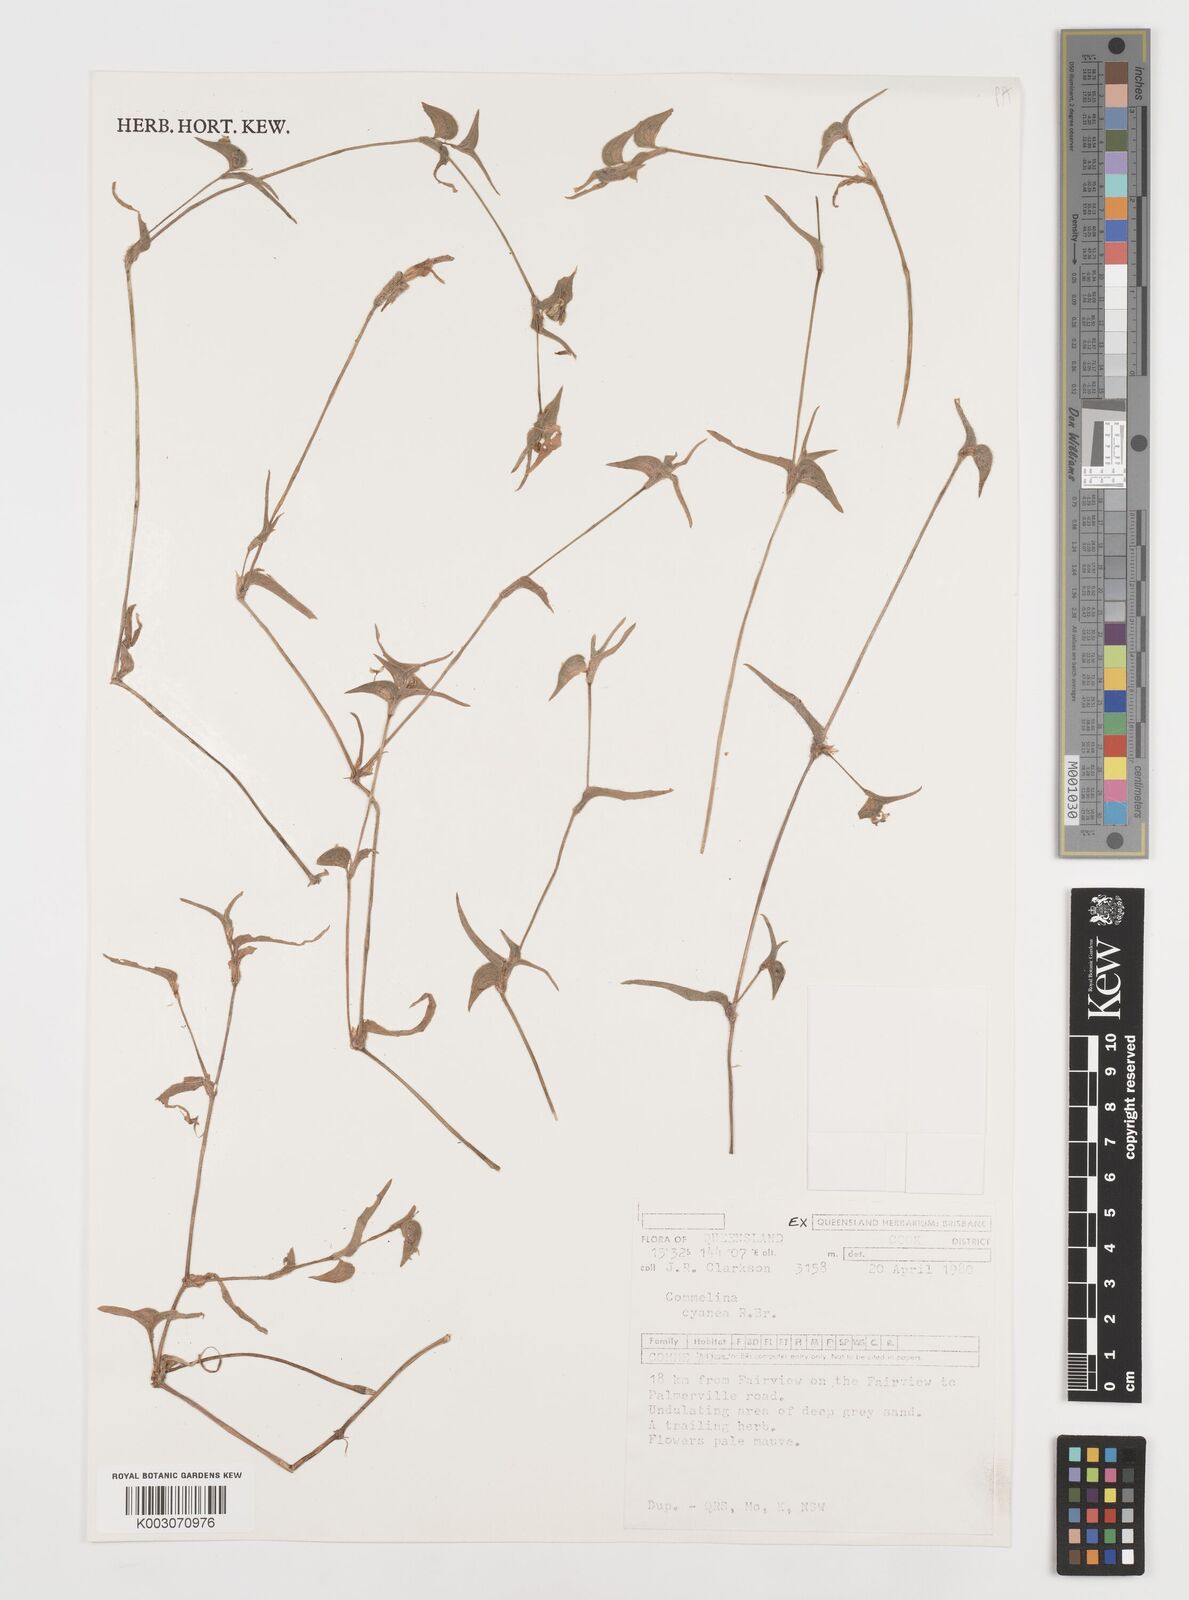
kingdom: Plantae
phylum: Tracheophyta
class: Liliopsida
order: Commelinales
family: Commelinaceae
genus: Commelina
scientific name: Commelina
